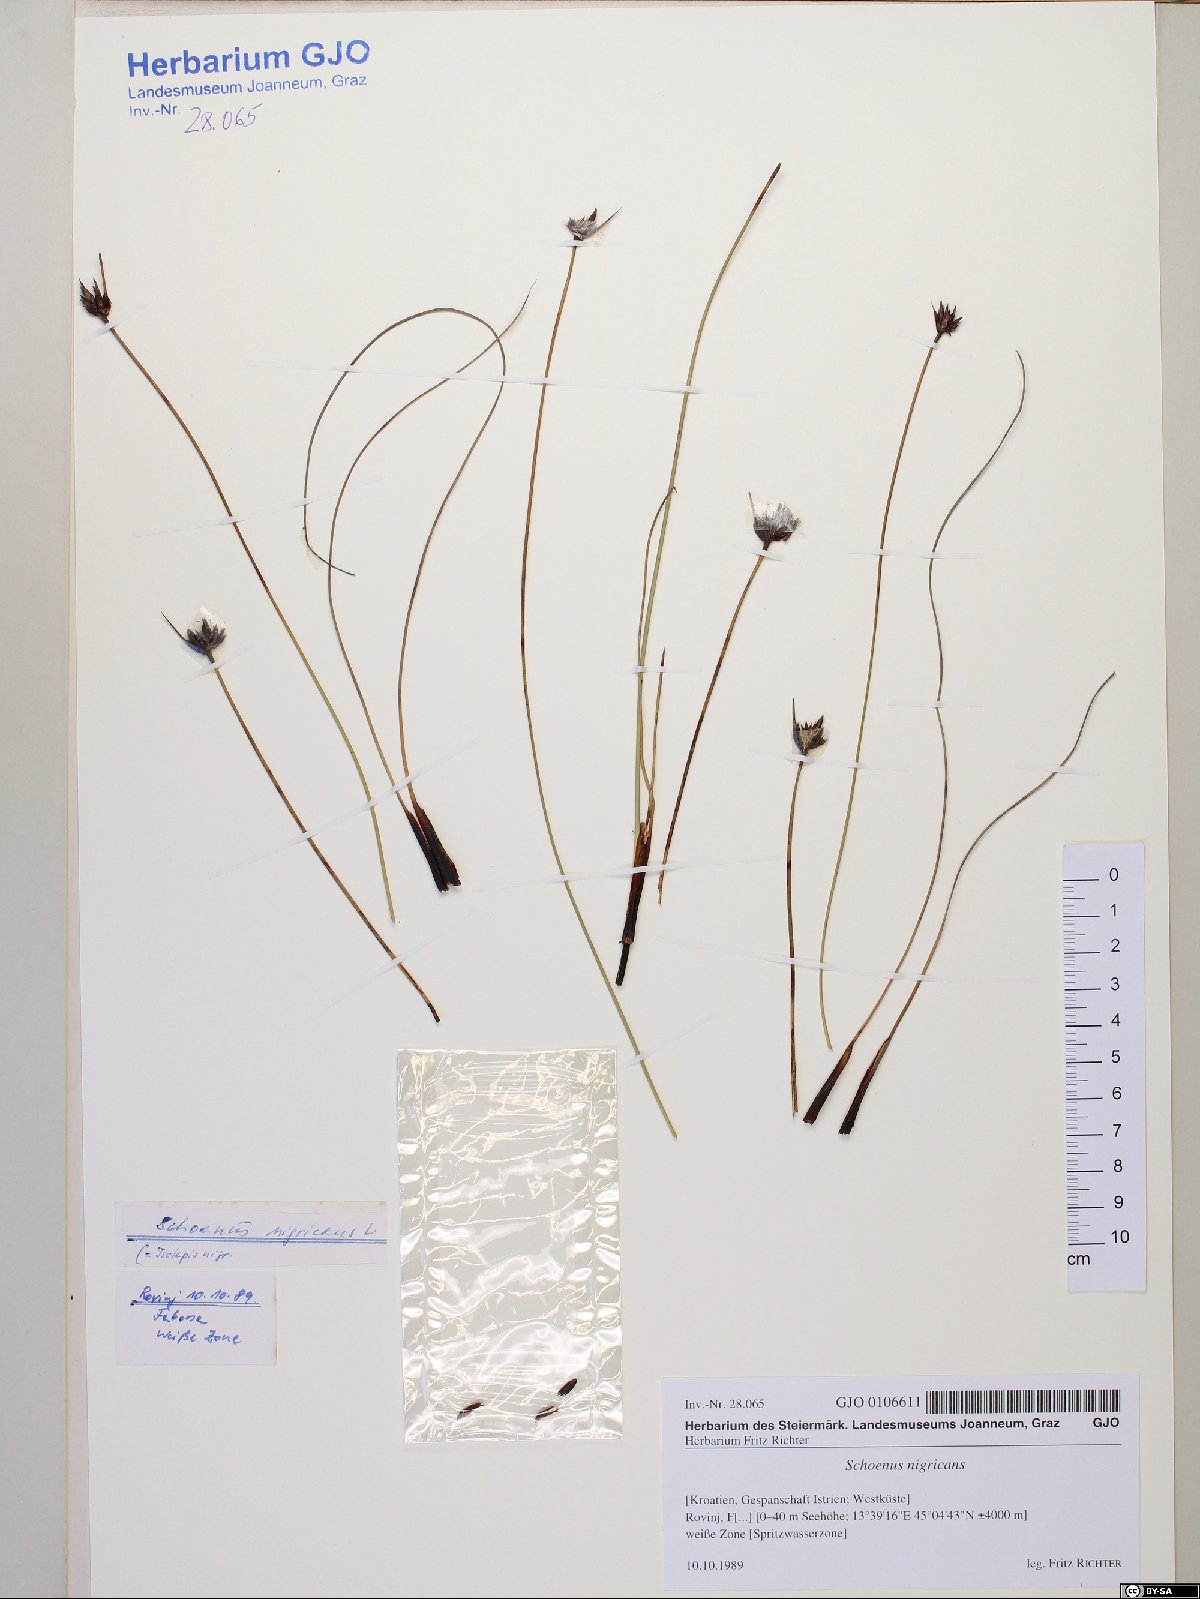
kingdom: Plantae
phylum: Tracheophyta
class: Liliopsida
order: Poales
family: Cyperaceae
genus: Schoenus
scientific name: Schoenus nigricans
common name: Black bog-rush
